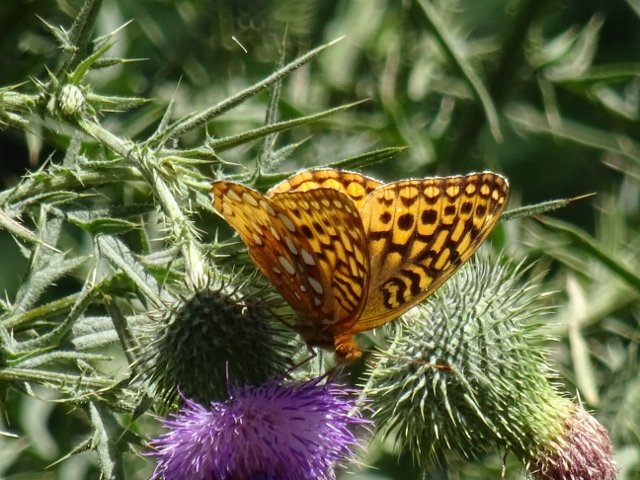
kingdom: Animalia
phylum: Arthropoda
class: Insecta
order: Lepidoptera
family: Nymphalidae
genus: Speyeria
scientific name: Speyeria cybele
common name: Great Spangled Fritillary
